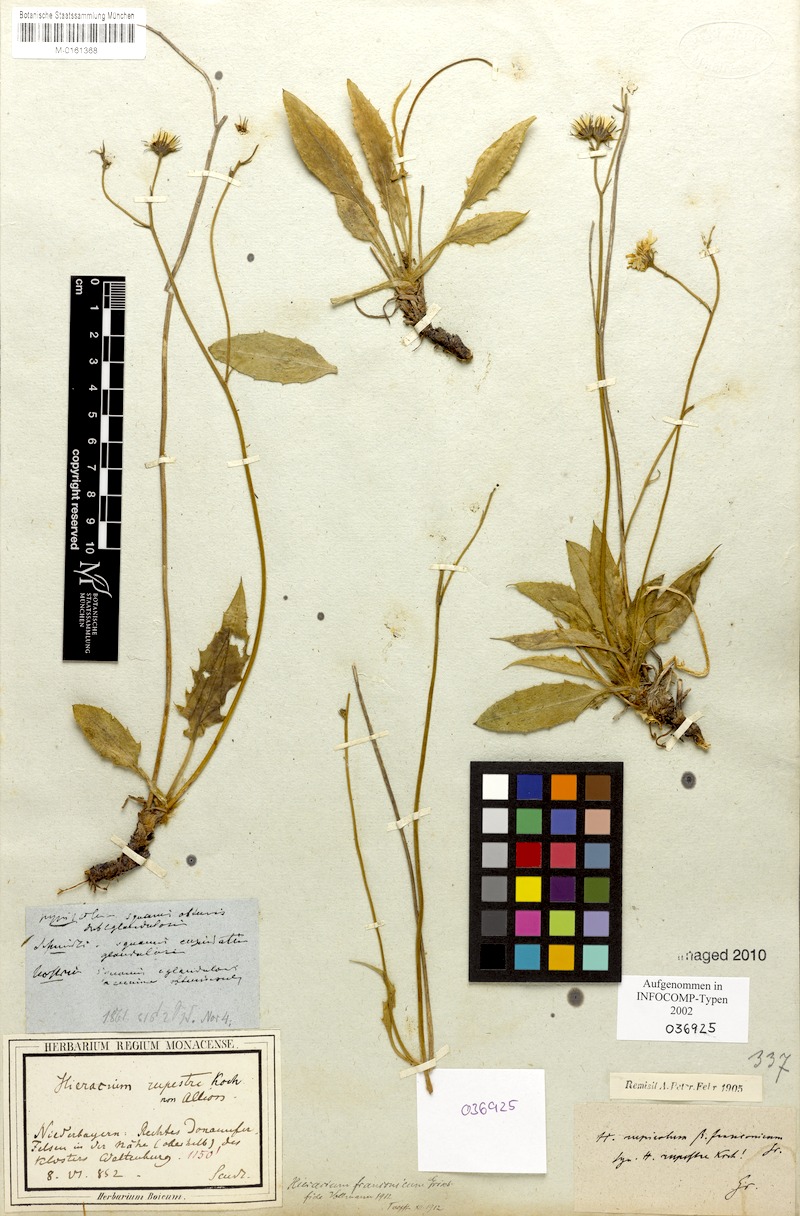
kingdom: Plantae
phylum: Tracheophyta
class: Magnoliopsida
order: Asterales
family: Asteraceae
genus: Hieracium
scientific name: Hieracium franconicum
